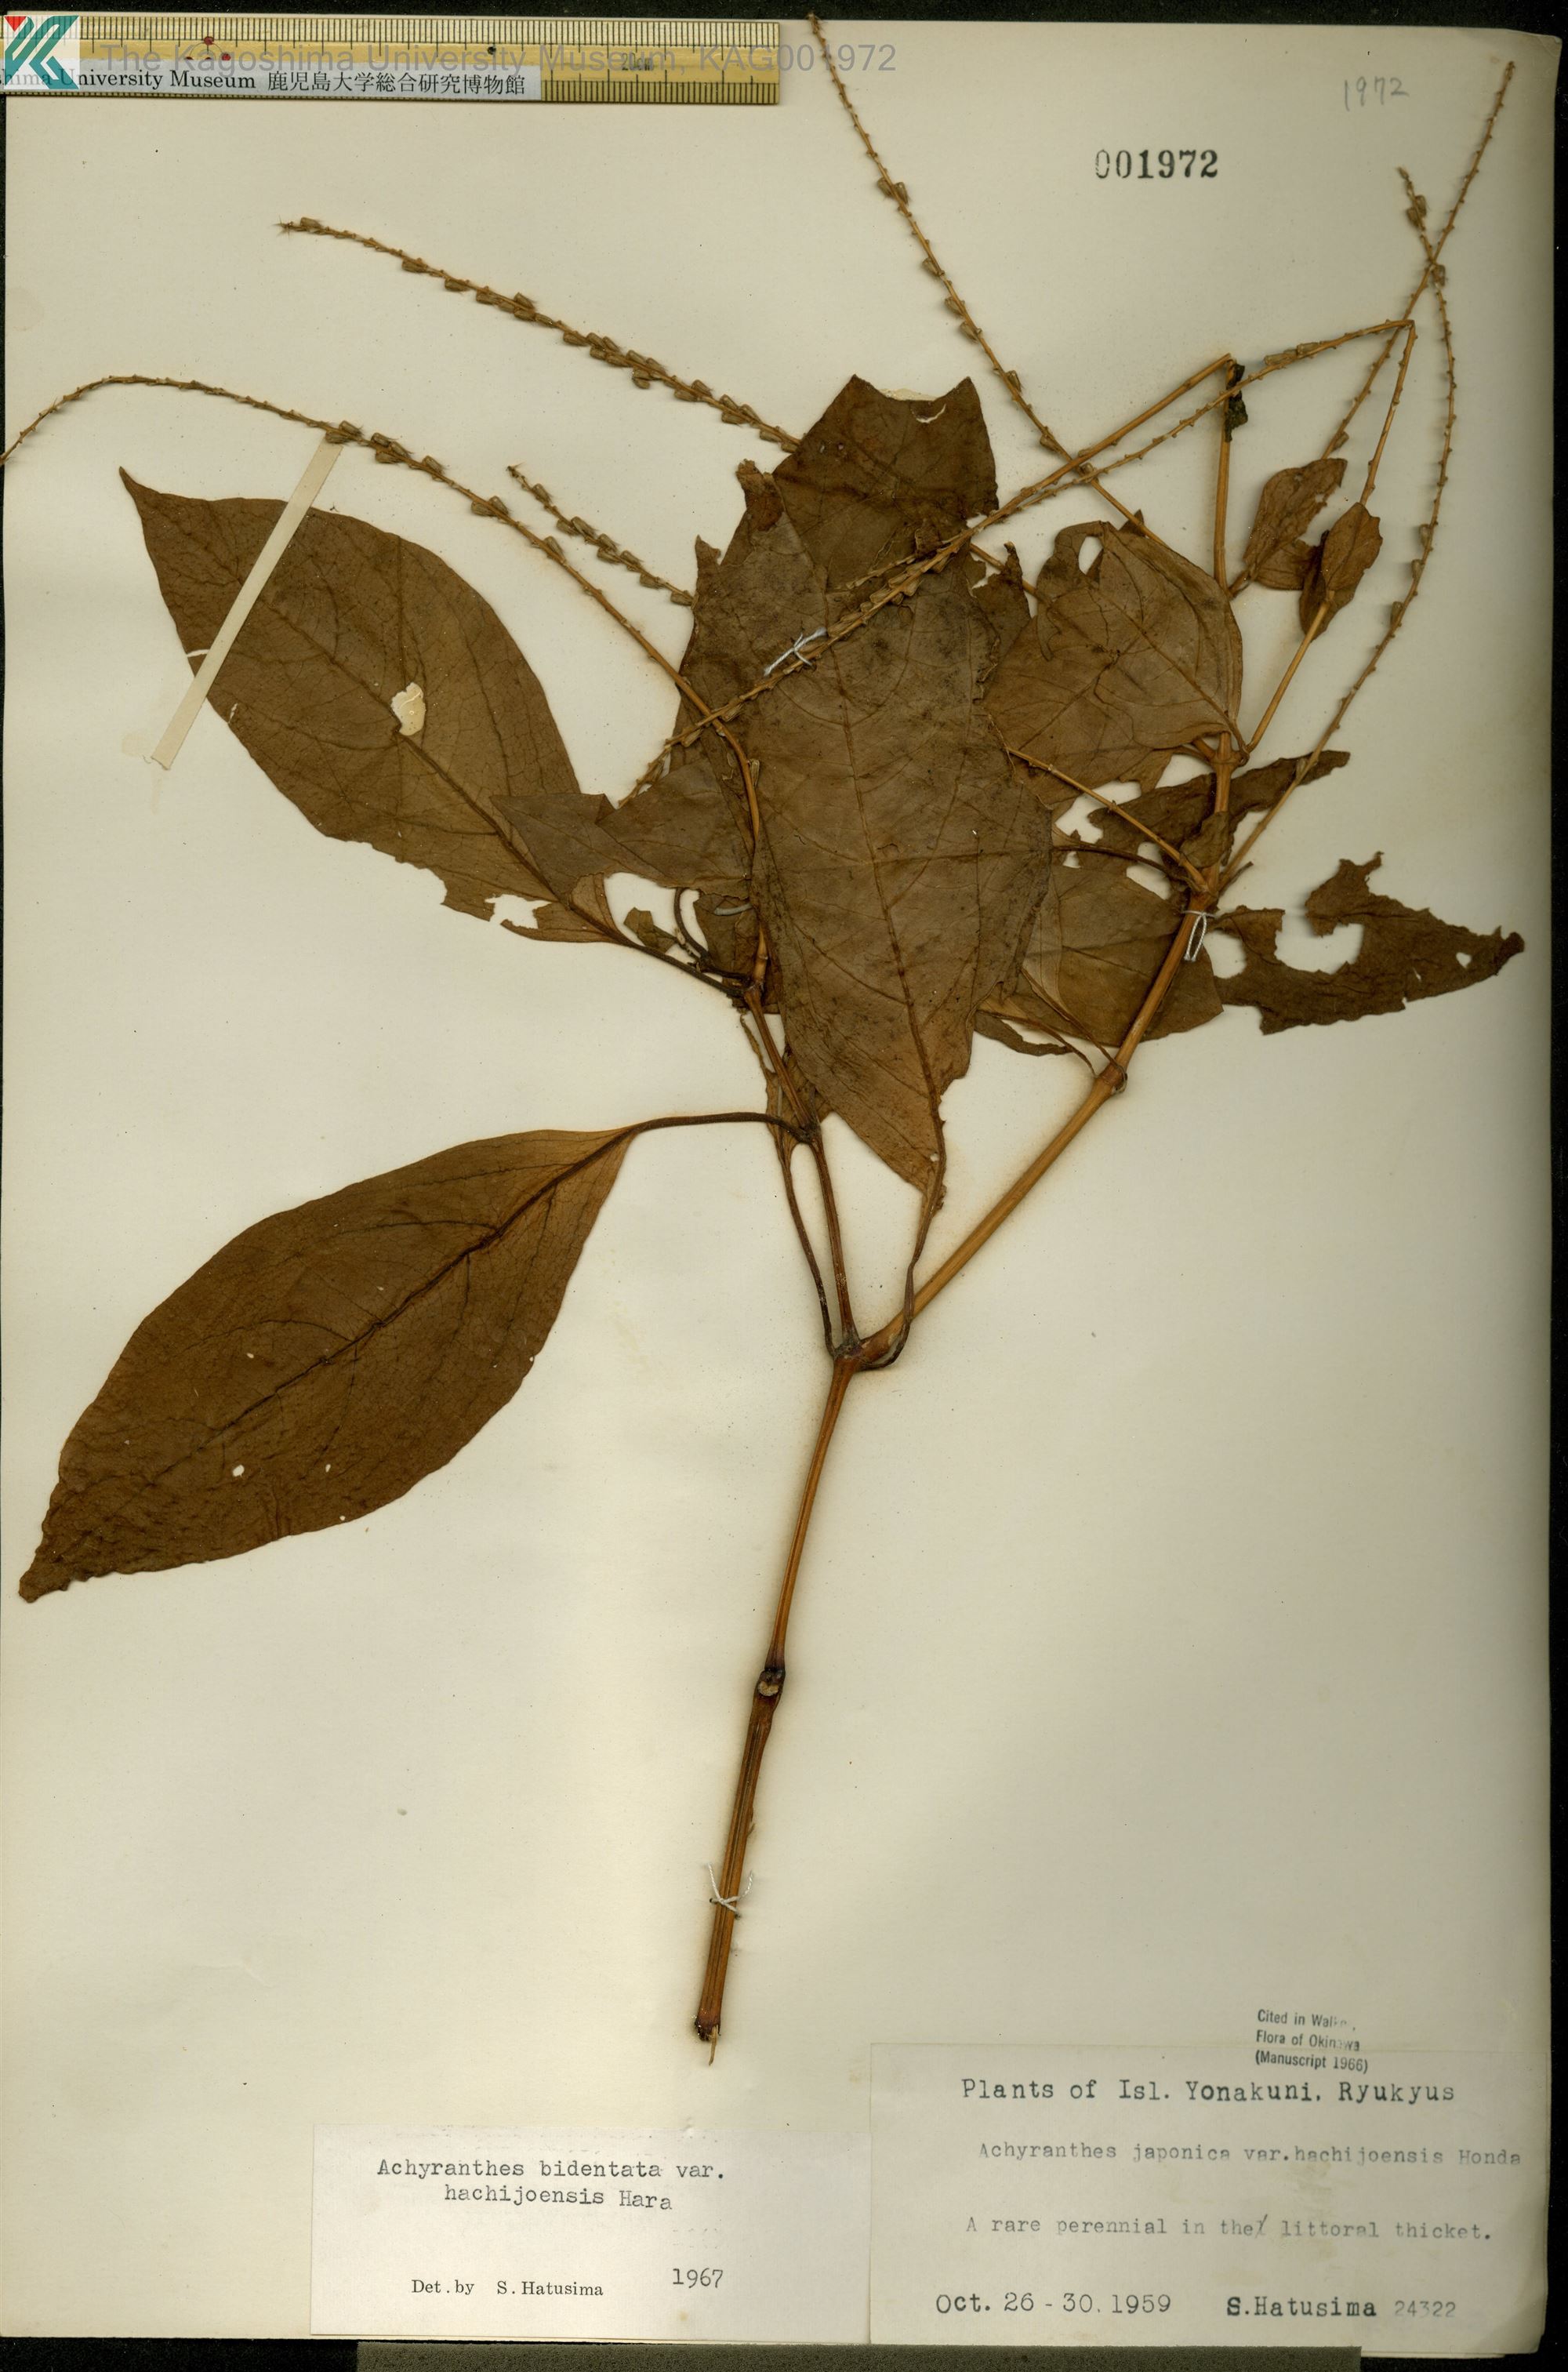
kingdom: Plantae
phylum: Tracheophyta
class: Magnoliopsida
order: Caryophyllales
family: Amaranthaceae
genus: Achyranthes
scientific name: Achyranthes bidentata
